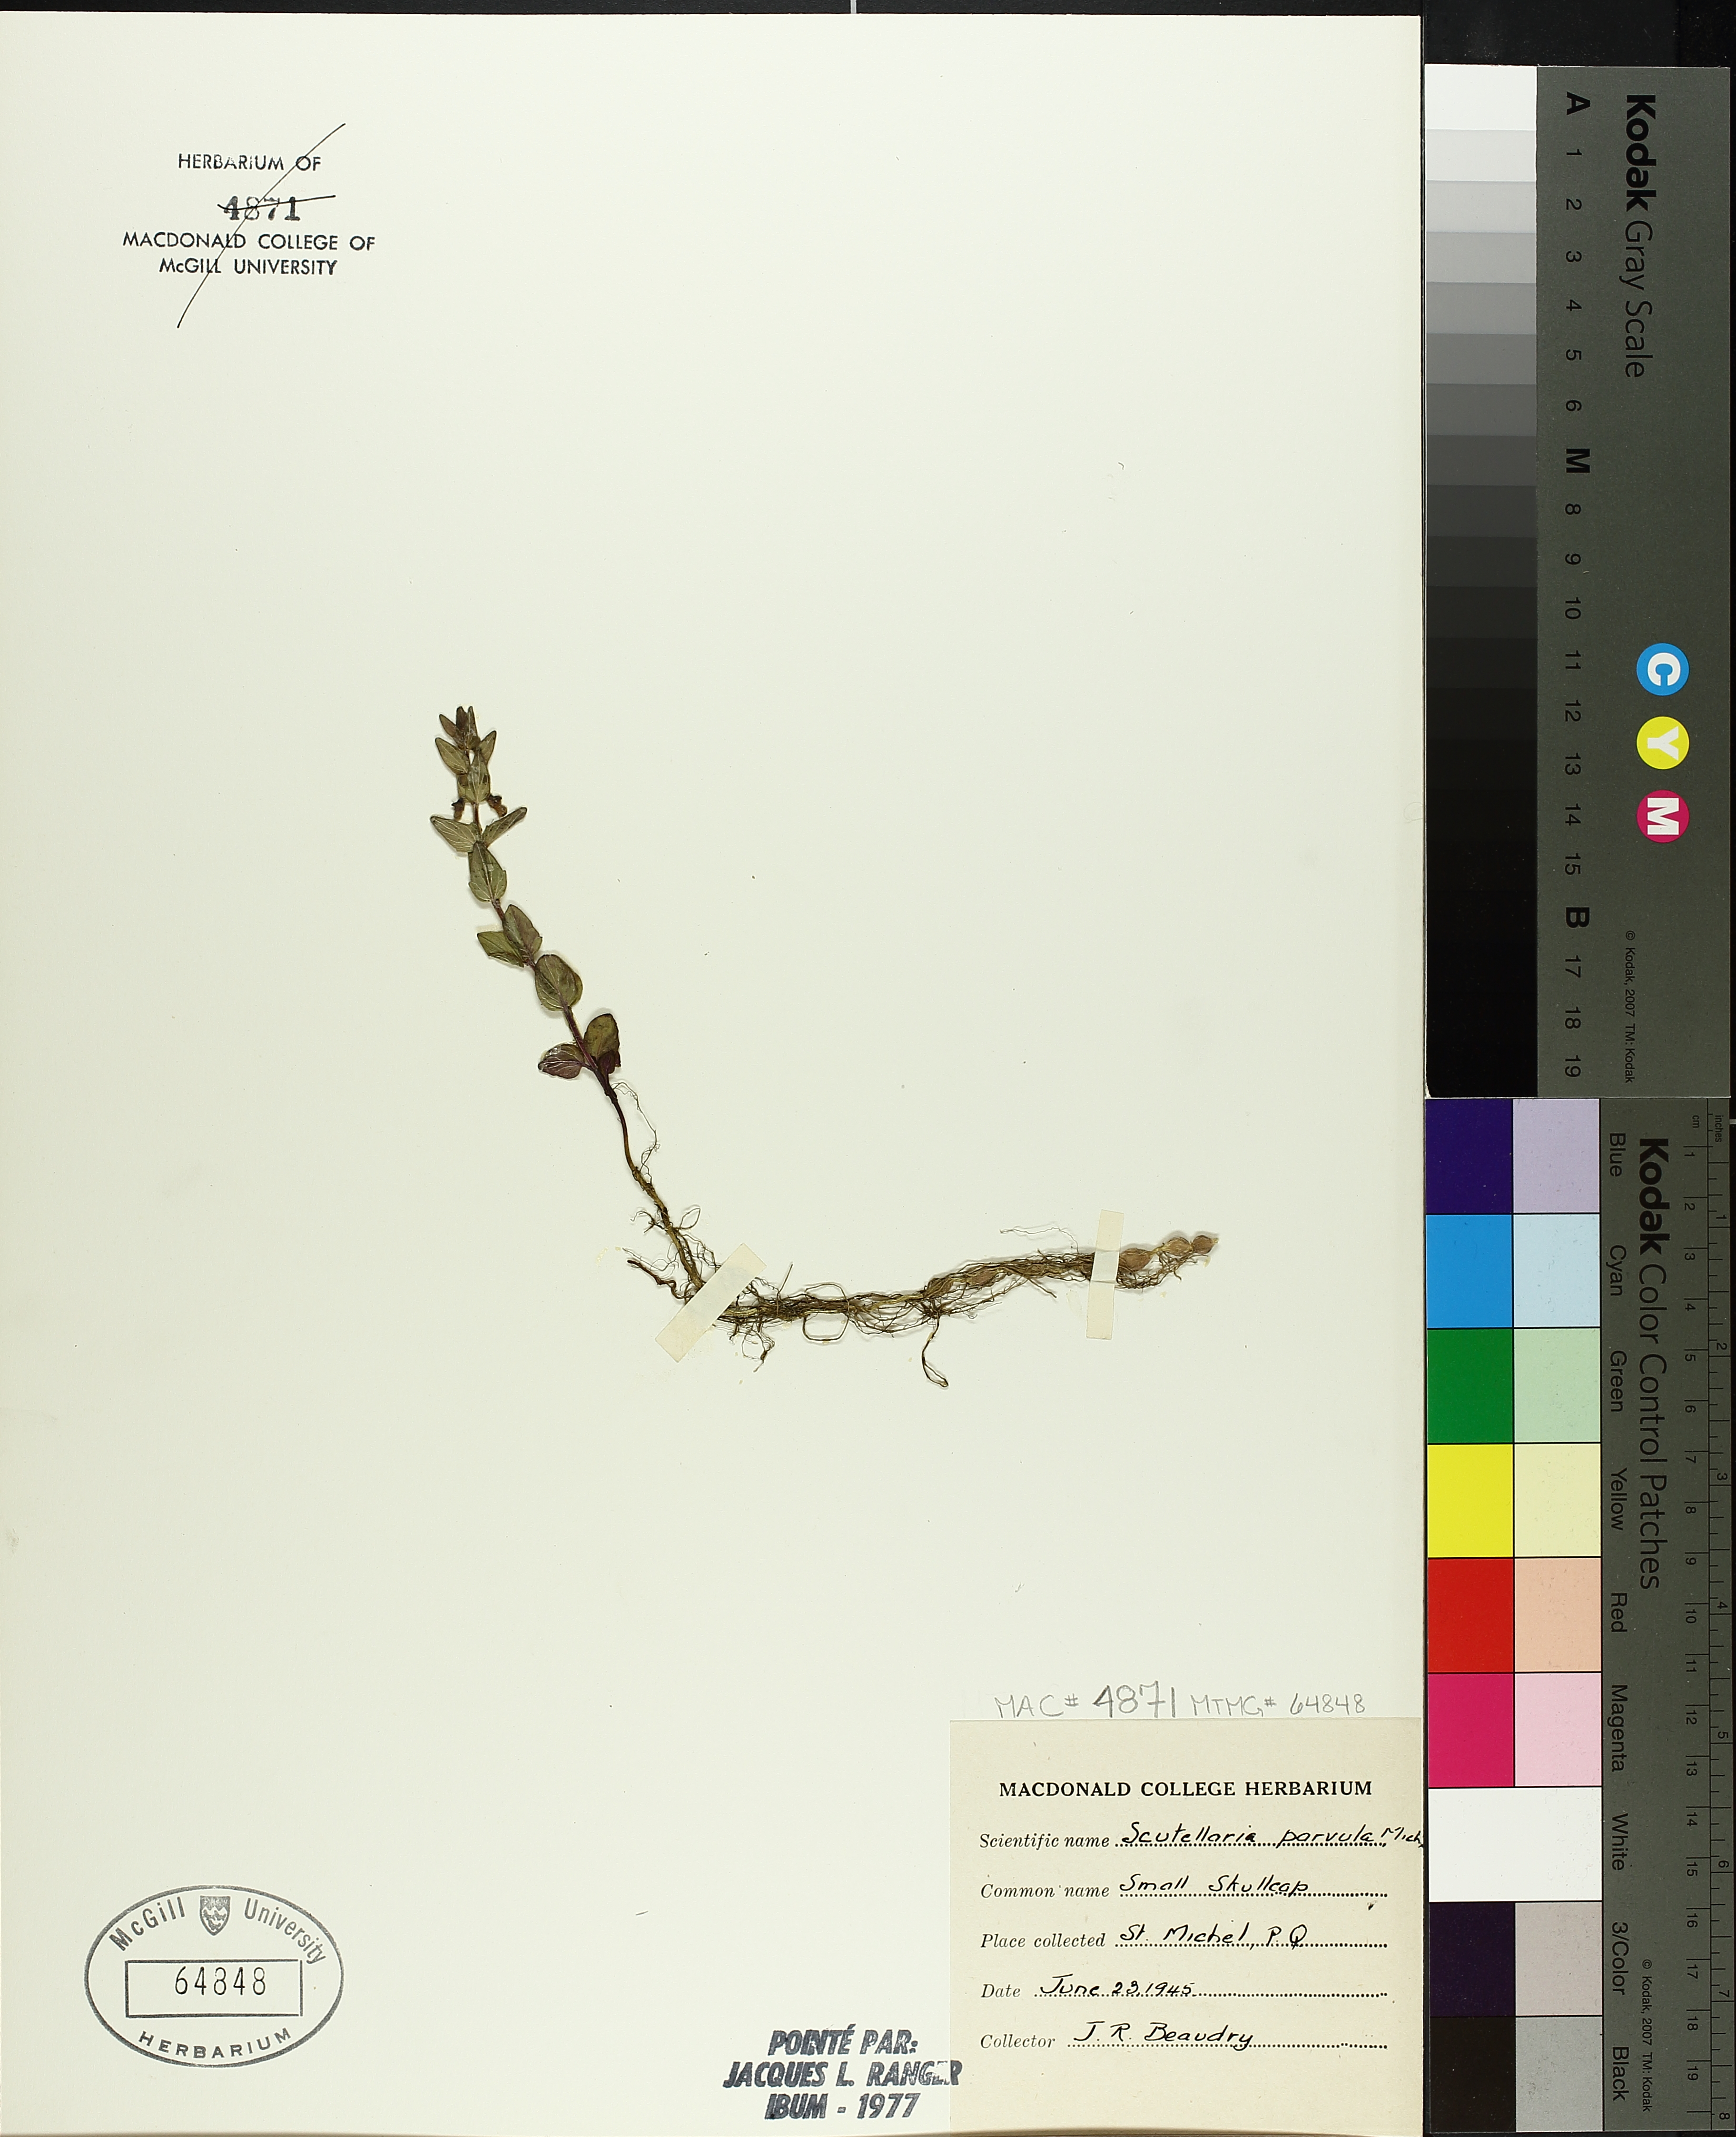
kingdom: Plantae
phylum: Tracheophyta
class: Magnoliopsida
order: Lamiales
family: Lamiaceae
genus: Scutellaria
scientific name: Scutellaria parvula
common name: Little scullcap
